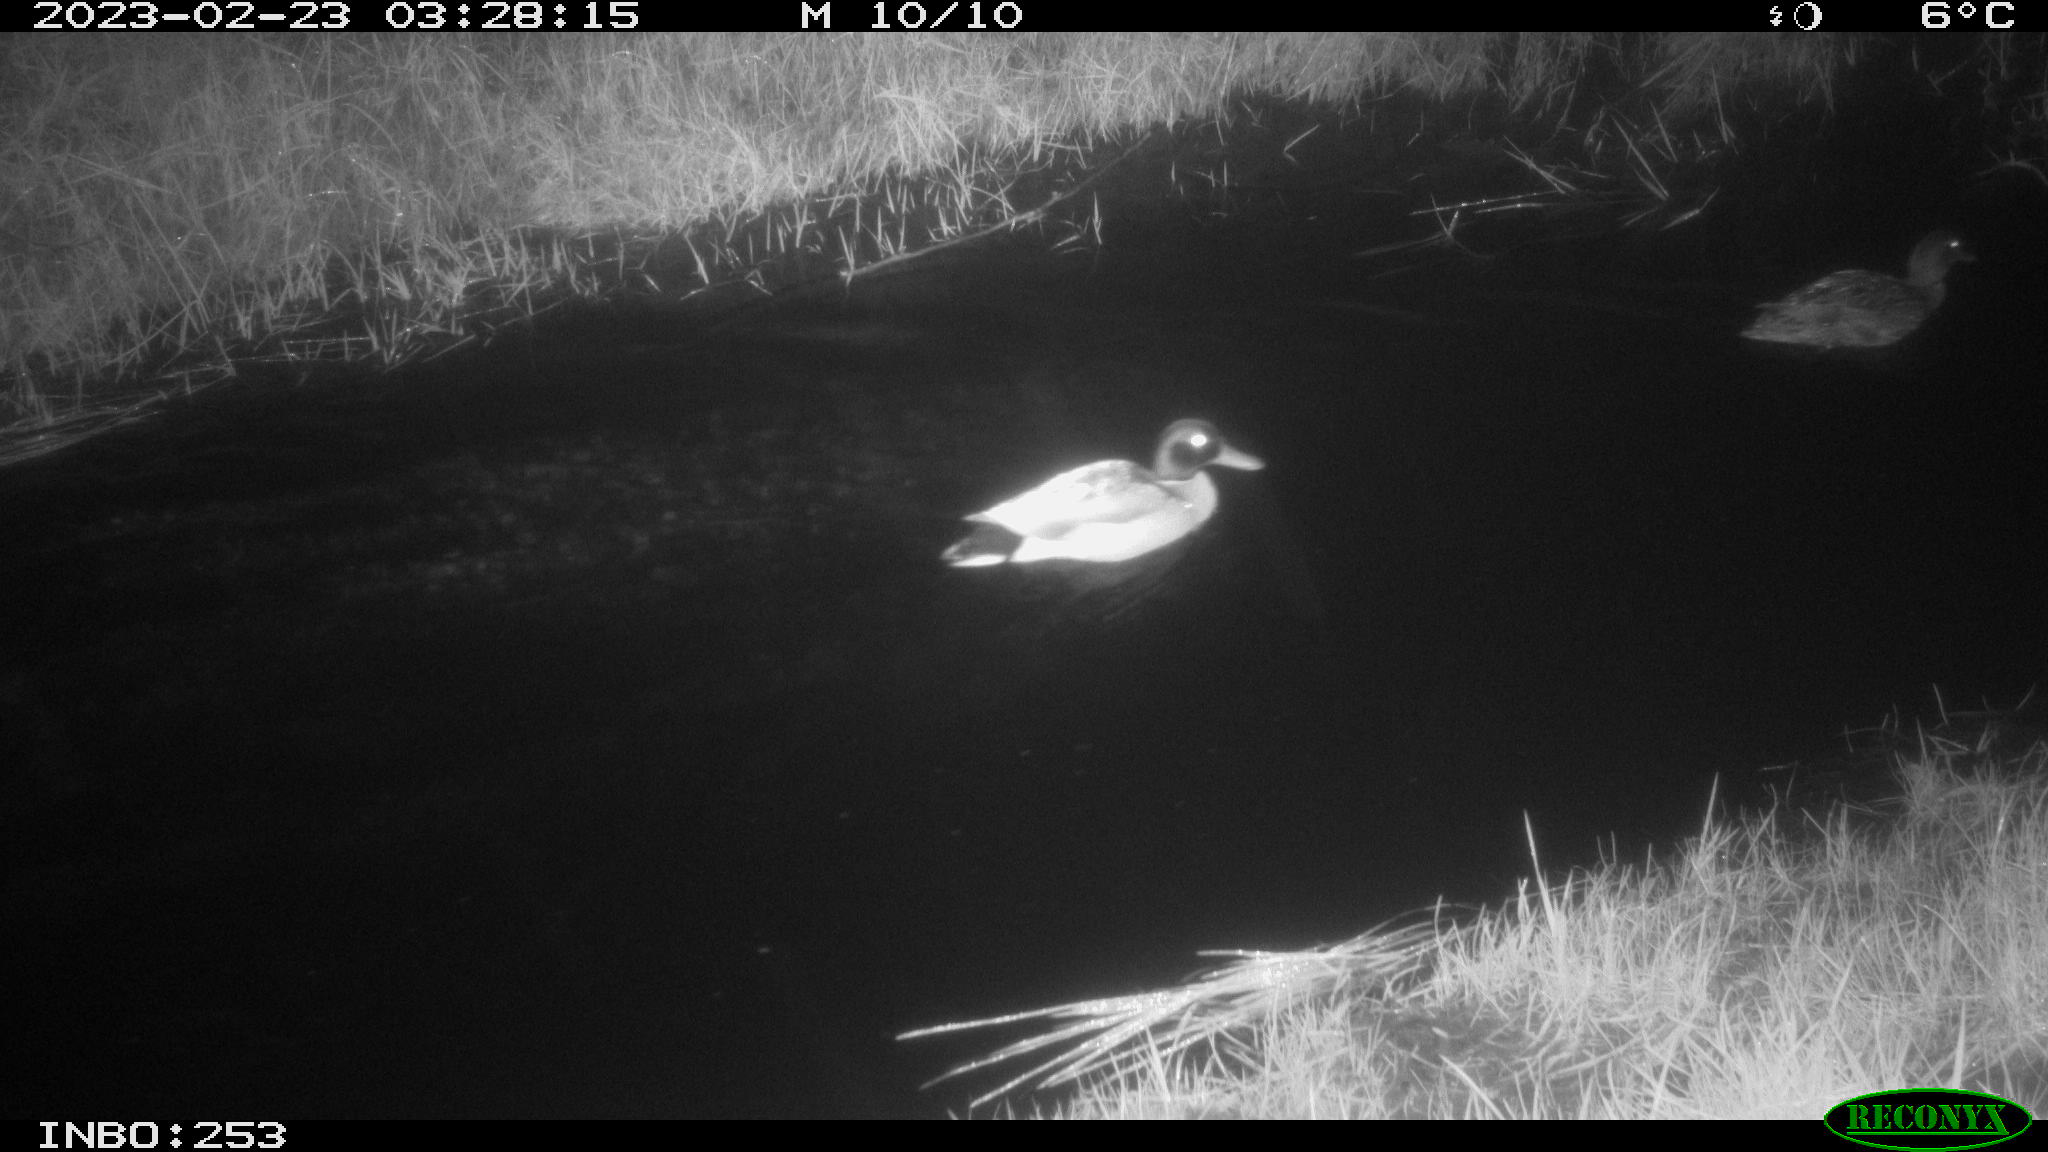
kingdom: Animalia
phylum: Chordata
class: Aves
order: Anseriformes
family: Anatidae
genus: Anas
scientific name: Anas
